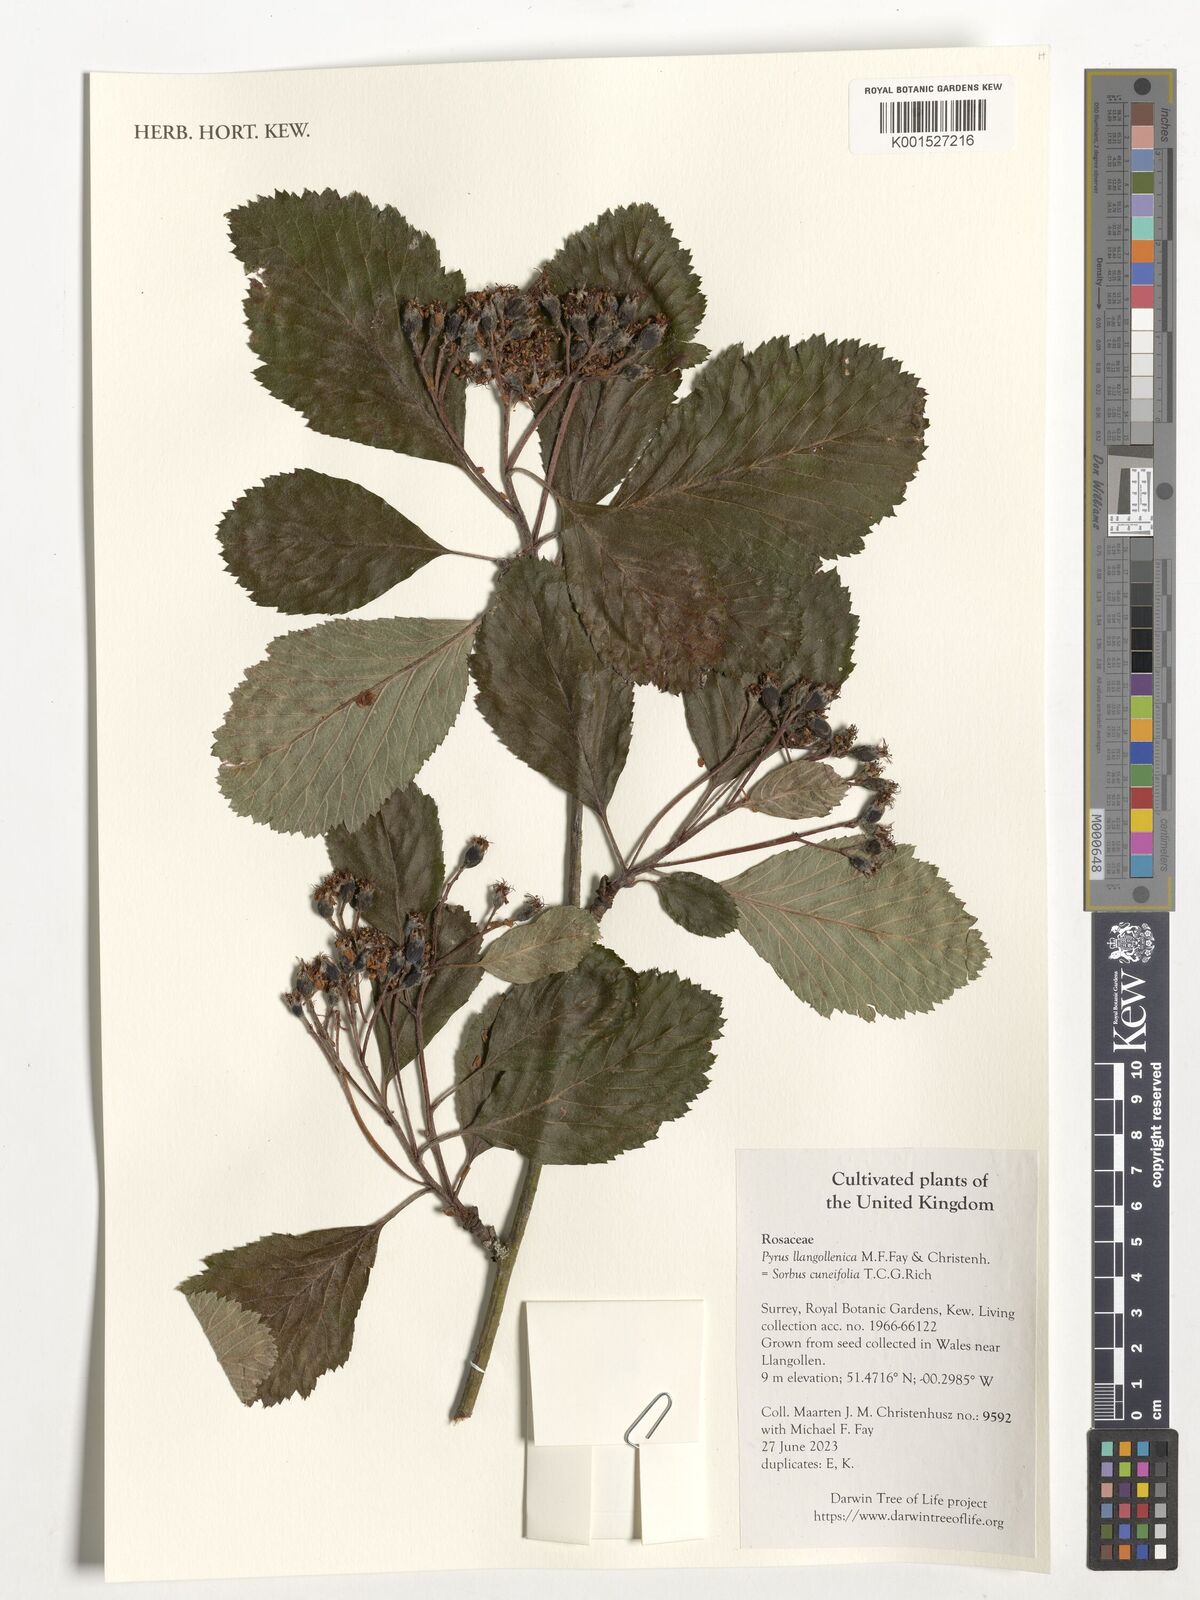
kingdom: Plantae
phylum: Tracheophyta
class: Magnoliopsida
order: Rosales
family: Rosaceae
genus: Hedlundia
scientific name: Hedlundia cuneifolia
